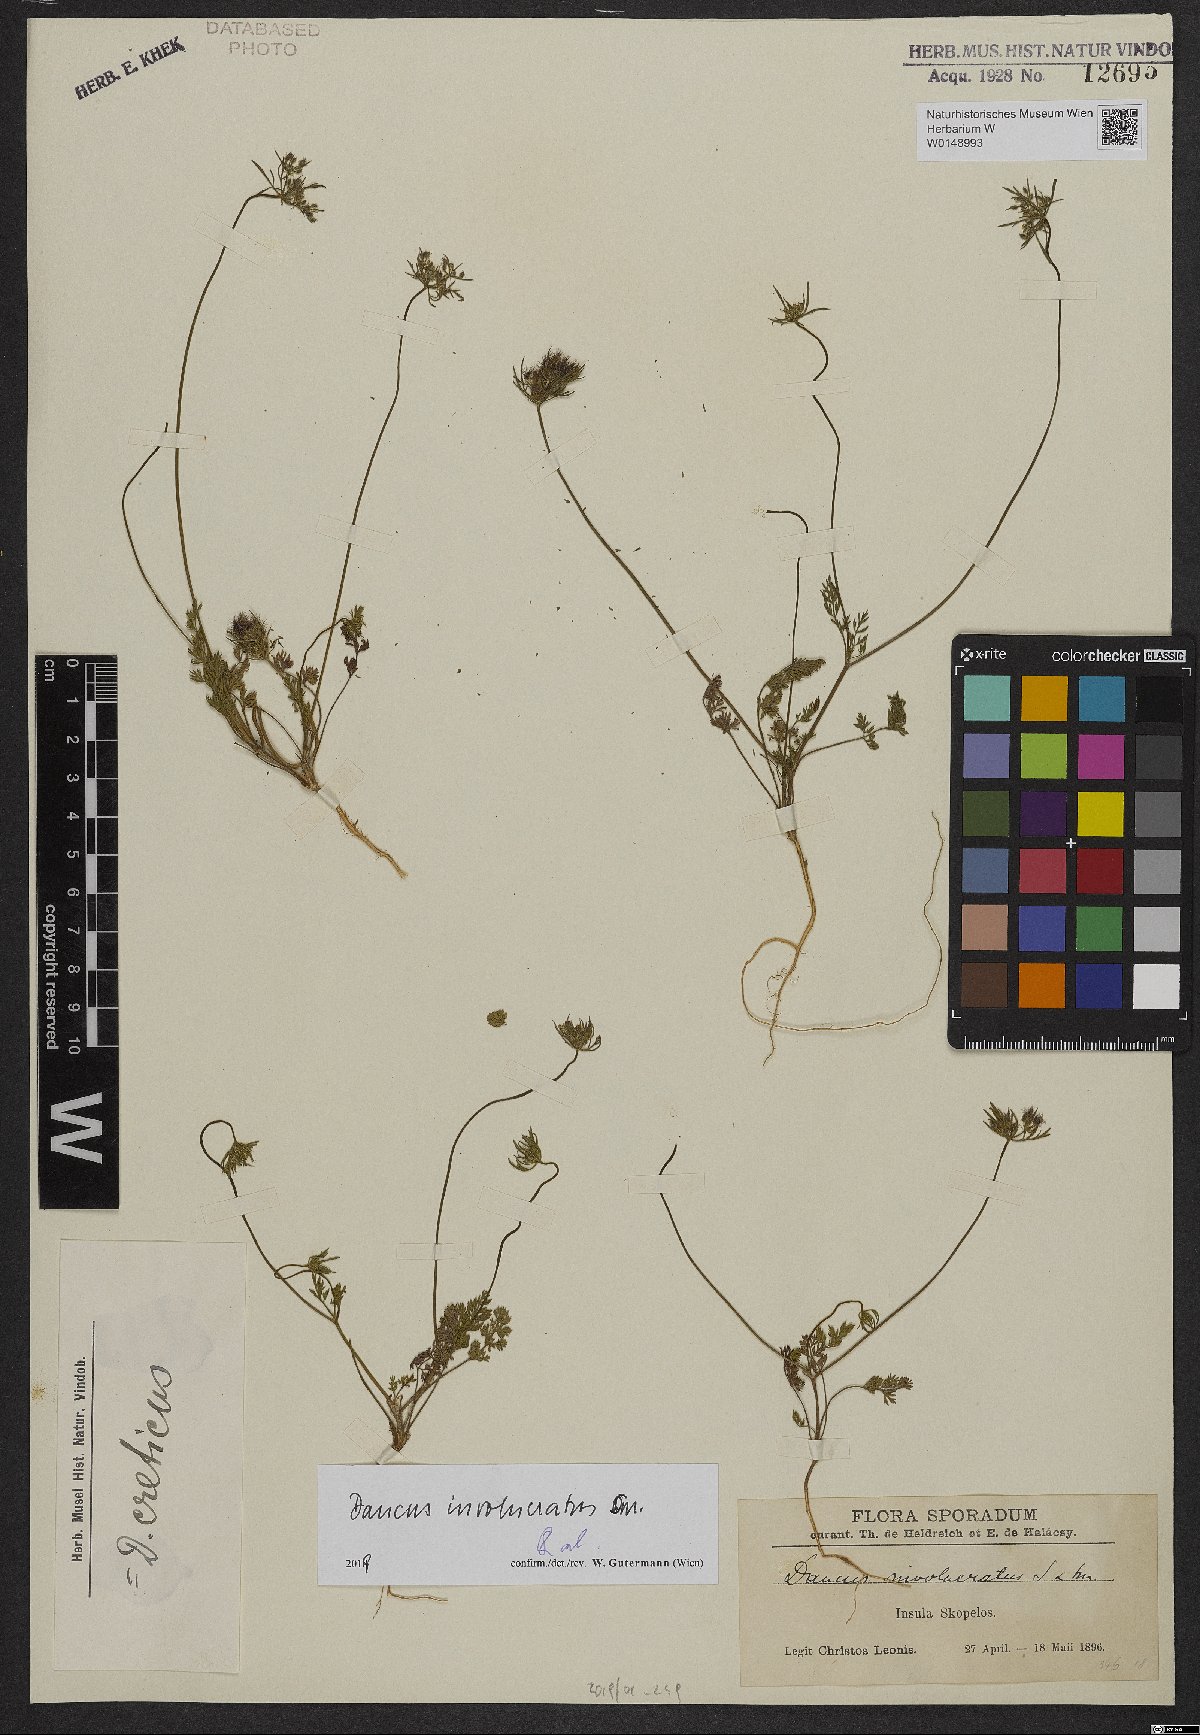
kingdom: Plantae
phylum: Tracheophyta
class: Magnoliopsida
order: Apiales
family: Apiaceae
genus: Daucus
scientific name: Daucus involucratus
